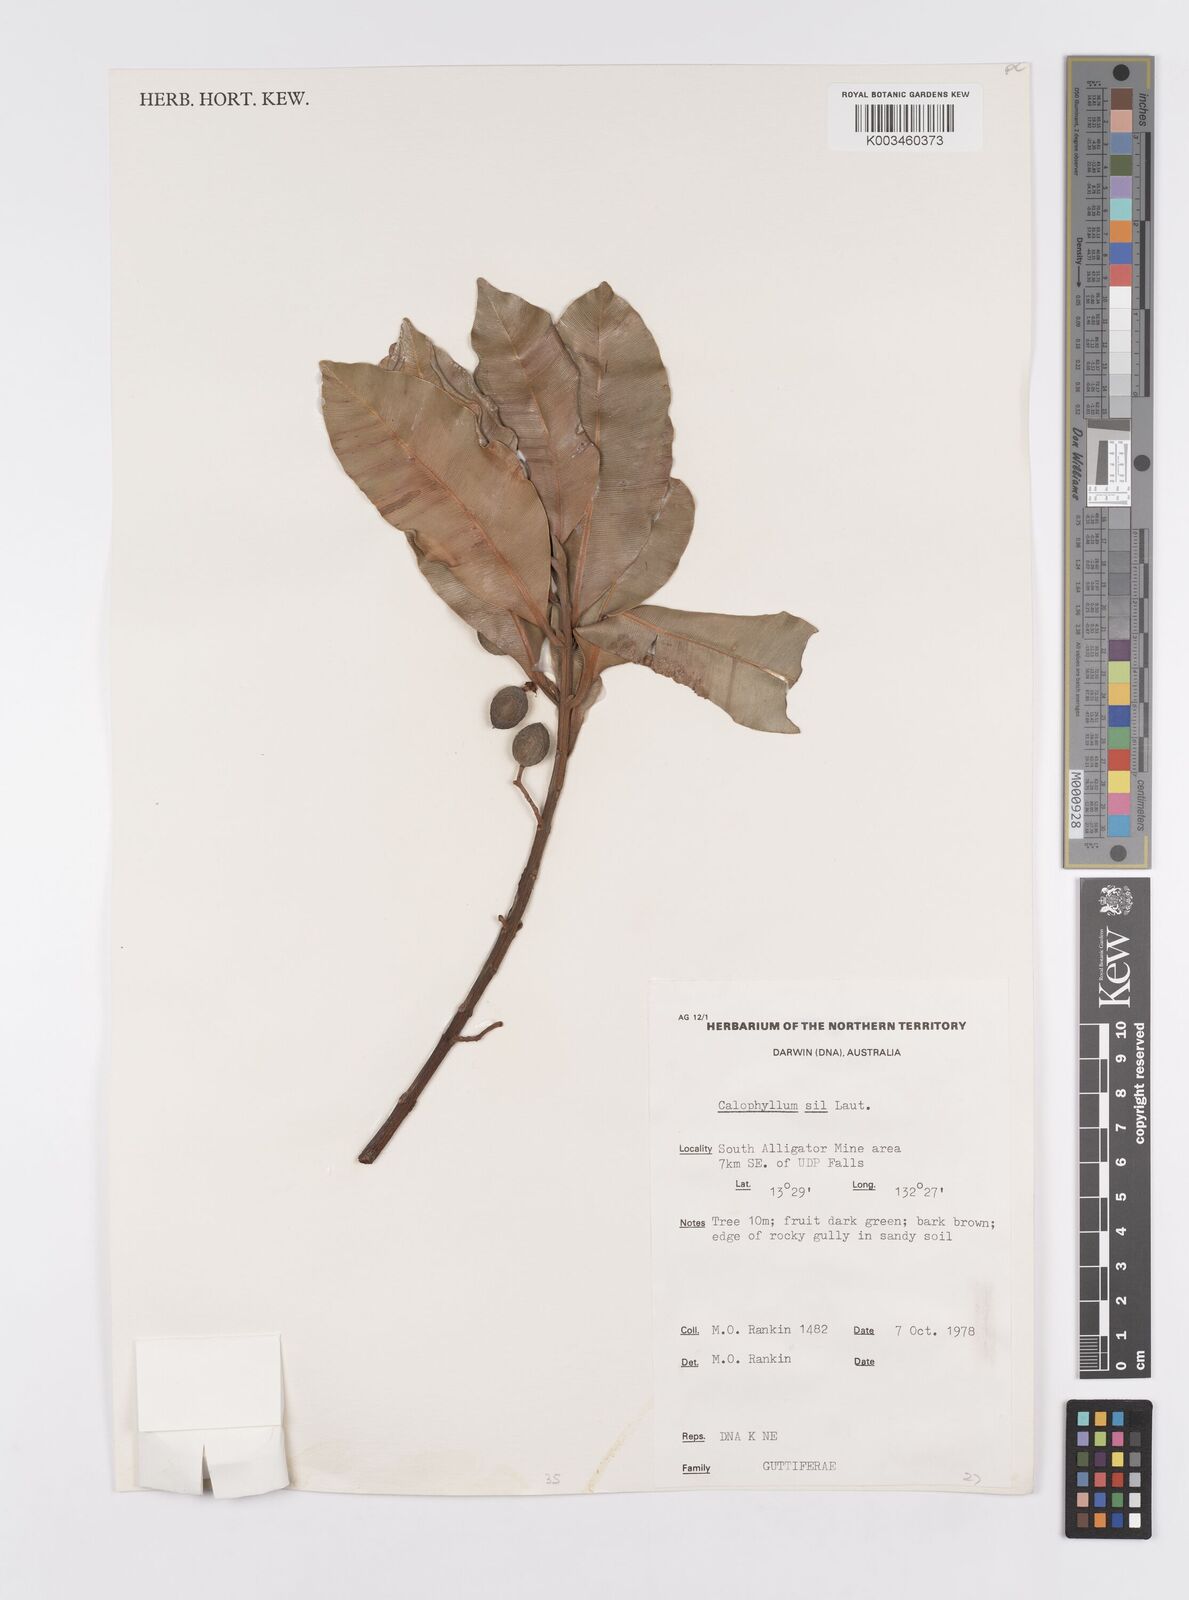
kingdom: Plantae
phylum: Tracheophyta
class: Magnoliopsida
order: Malpighiales
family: Calophyllaceae
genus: Calophyllum
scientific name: Calophyllum sil
